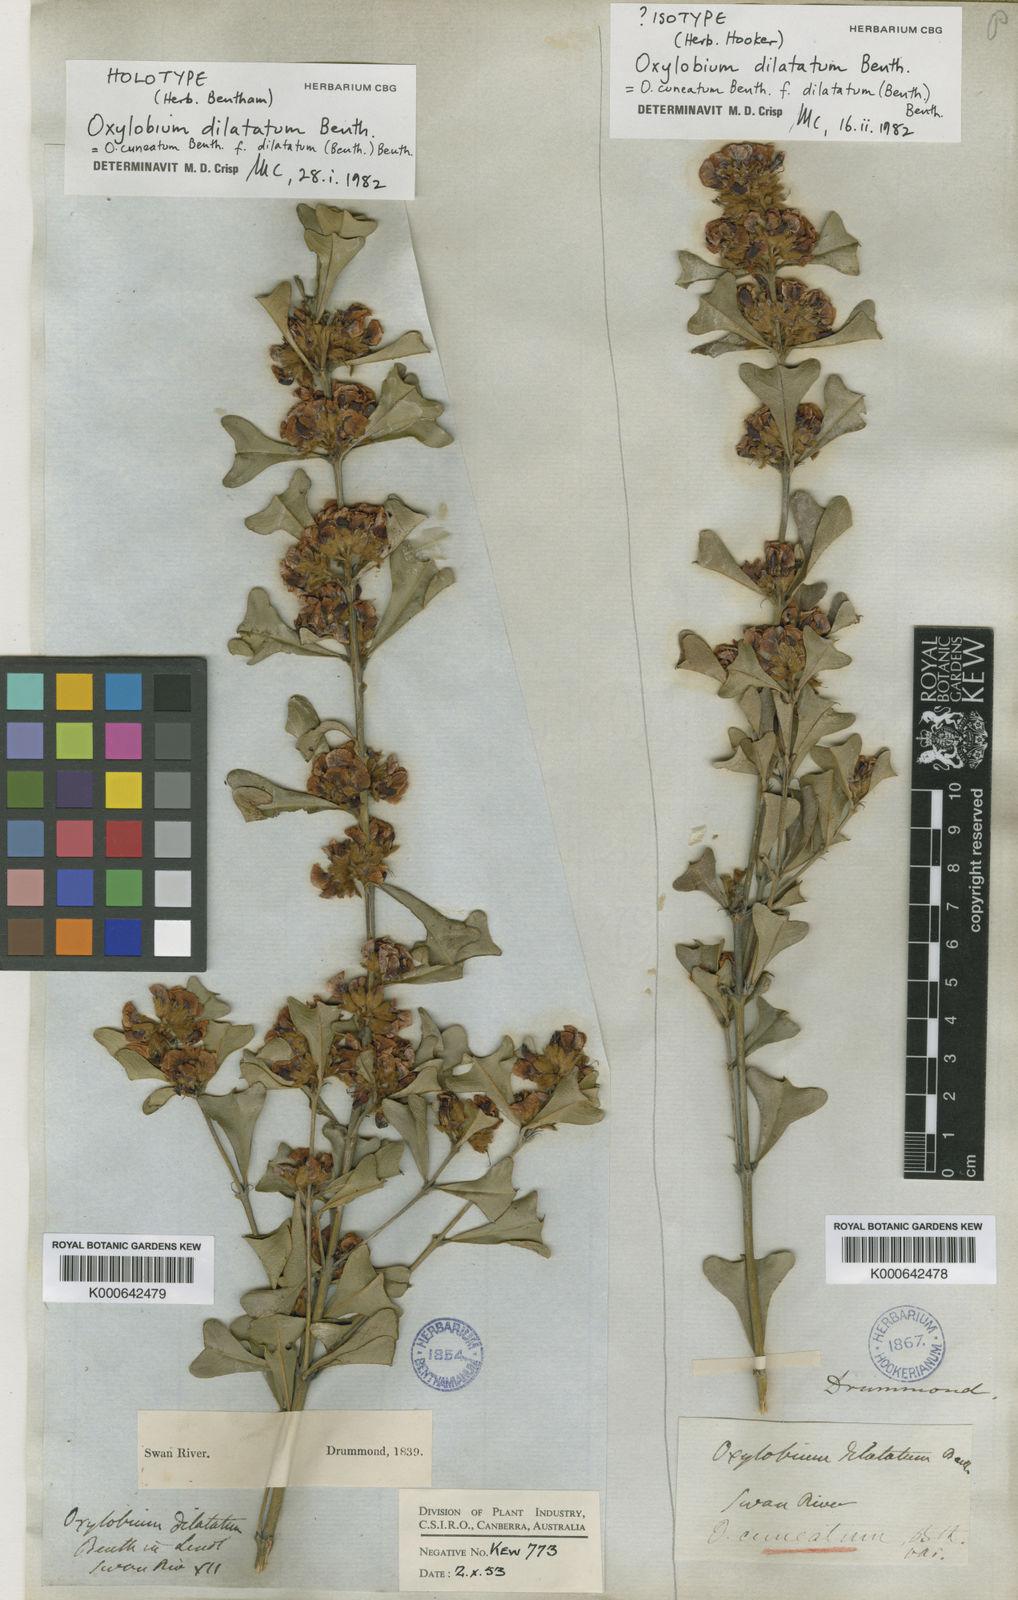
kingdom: Plantae
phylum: Tracheophyta
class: Magnoliopsida
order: Fabales
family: Fabaceae
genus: Gastrolobium
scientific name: Gastrolobium dilatatum
